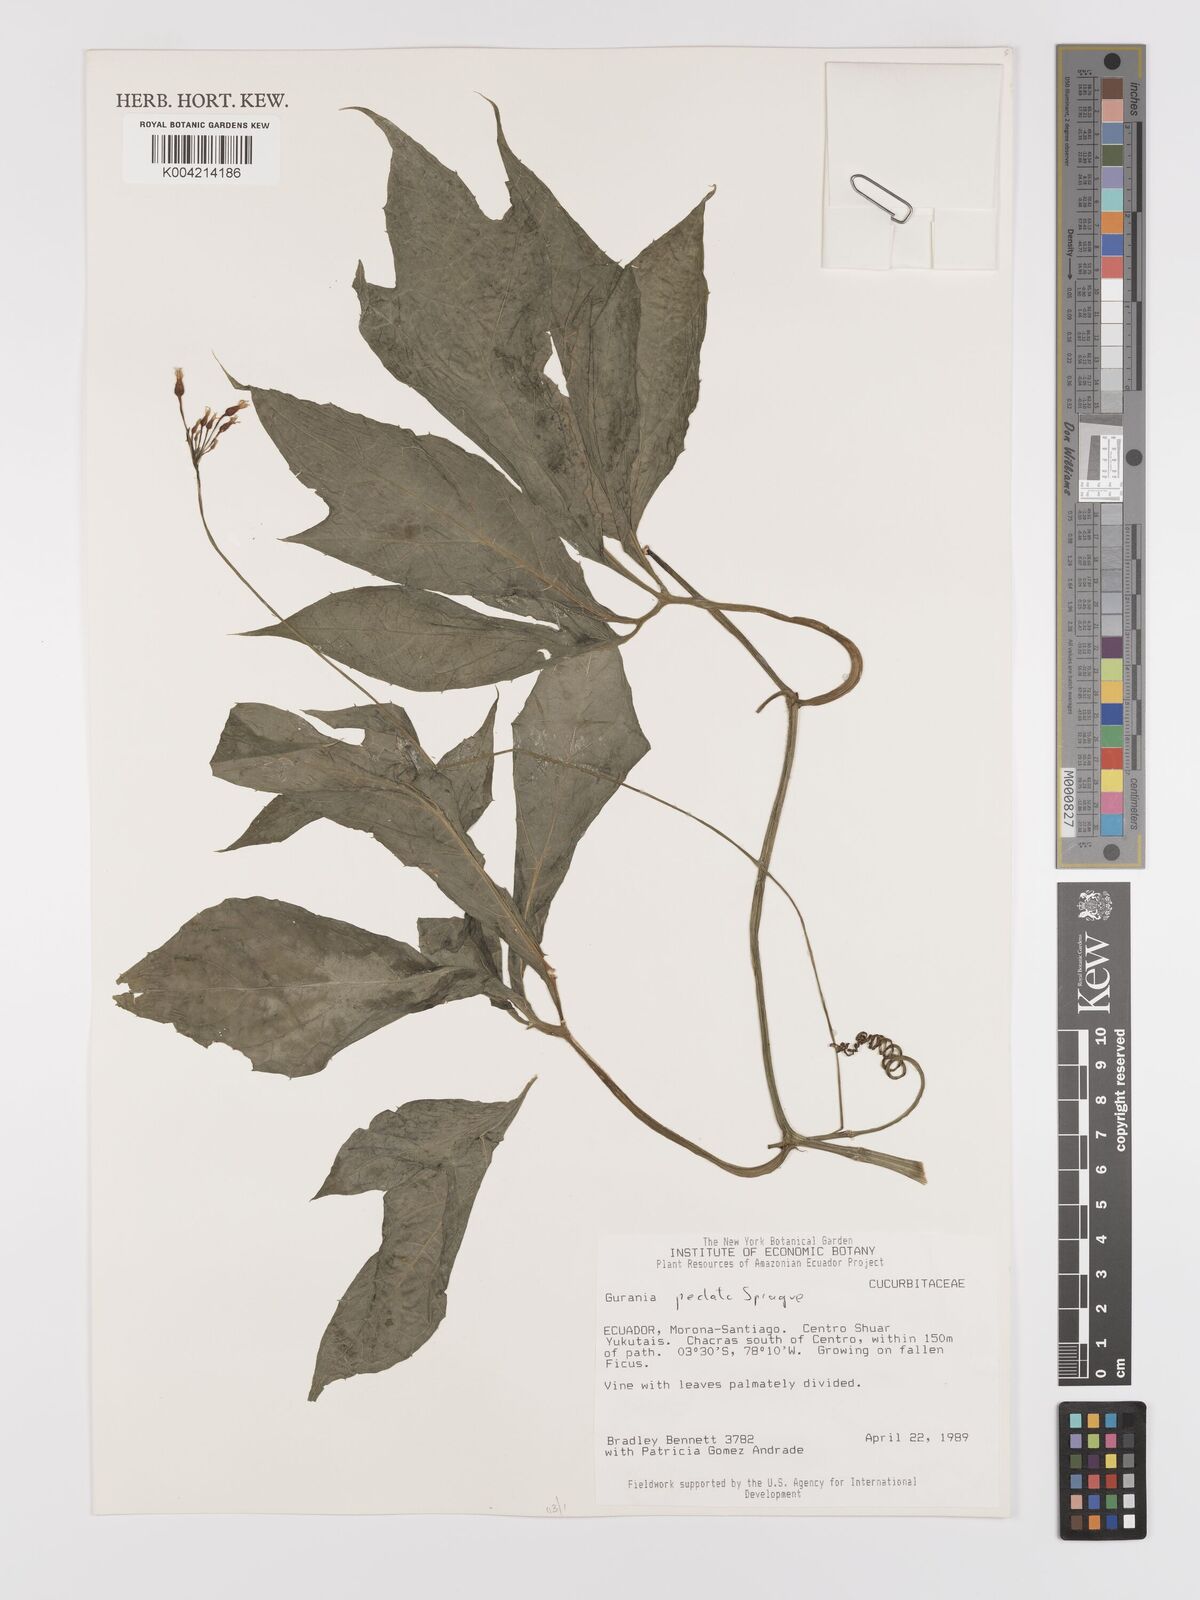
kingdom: Plantae
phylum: Tracheophyta
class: Magnoliopsida
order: Cucurbitales
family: Cucurbitaceae
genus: Gurania
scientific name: Gurania pedata
